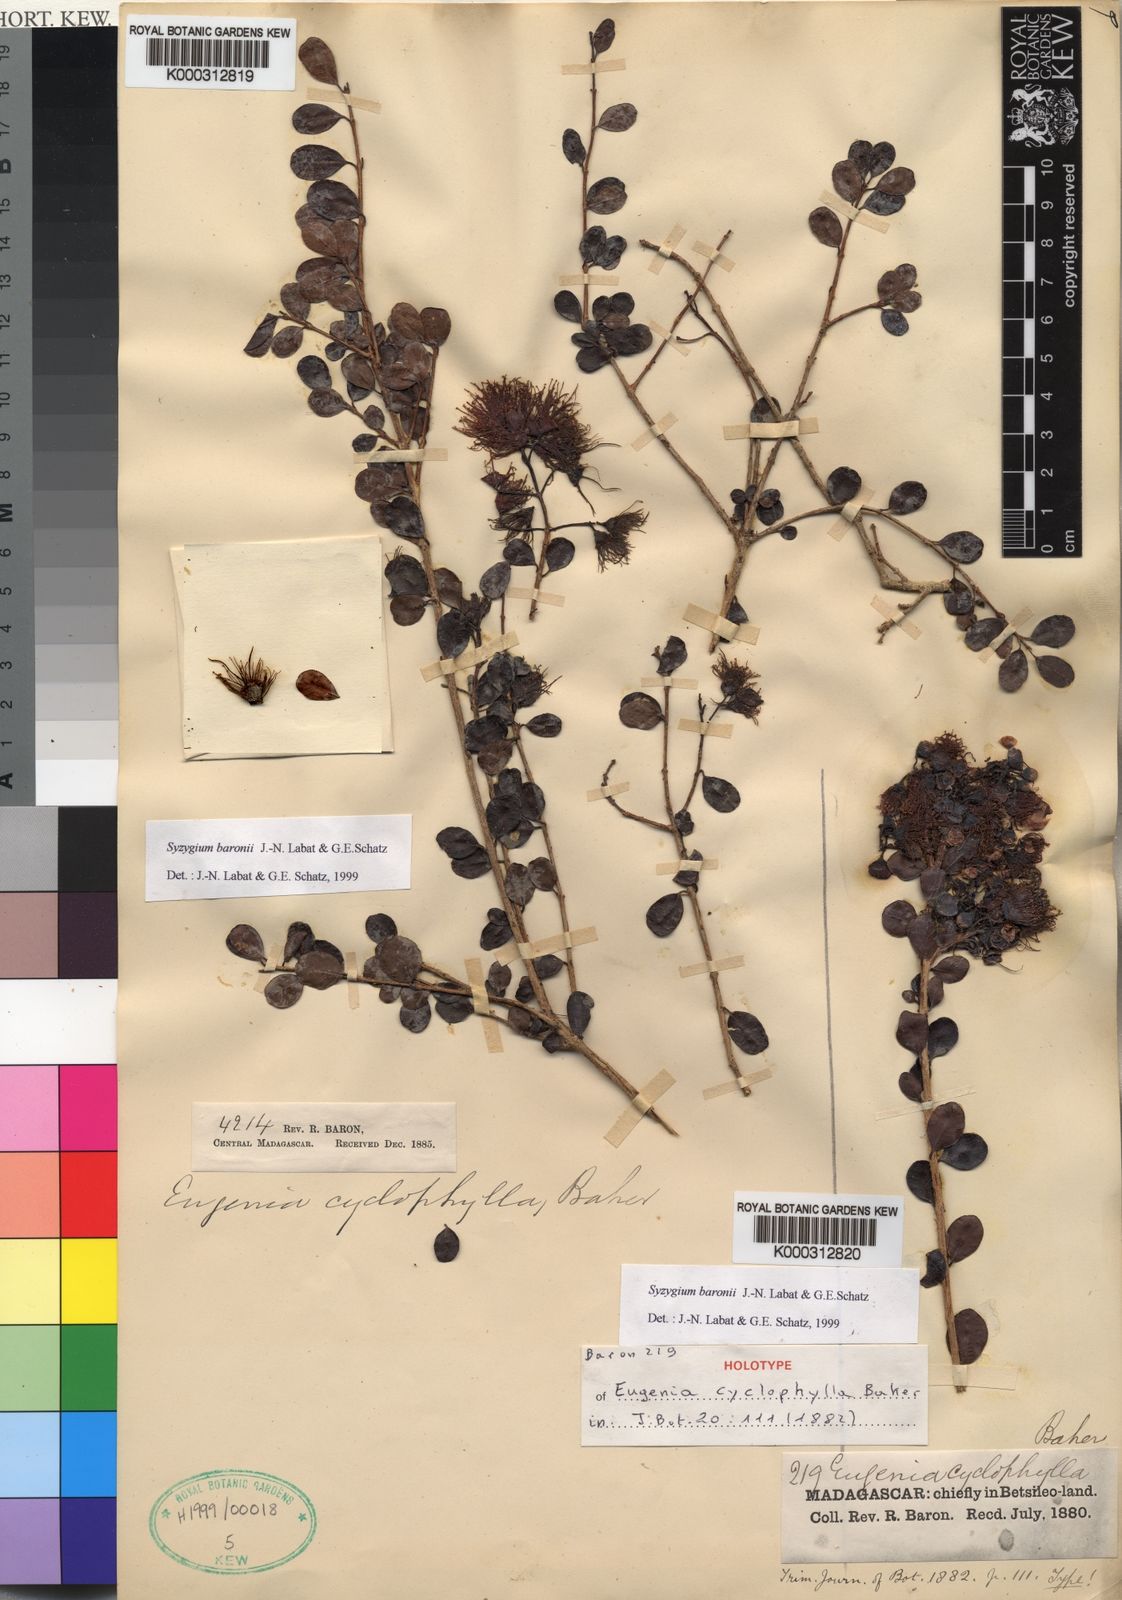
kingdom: Plantae
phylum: Tracheophyta
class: Magnoliopsida
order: Myrtales
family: Myrtaceae
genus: Syzygium
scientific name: Syzygium baronii
